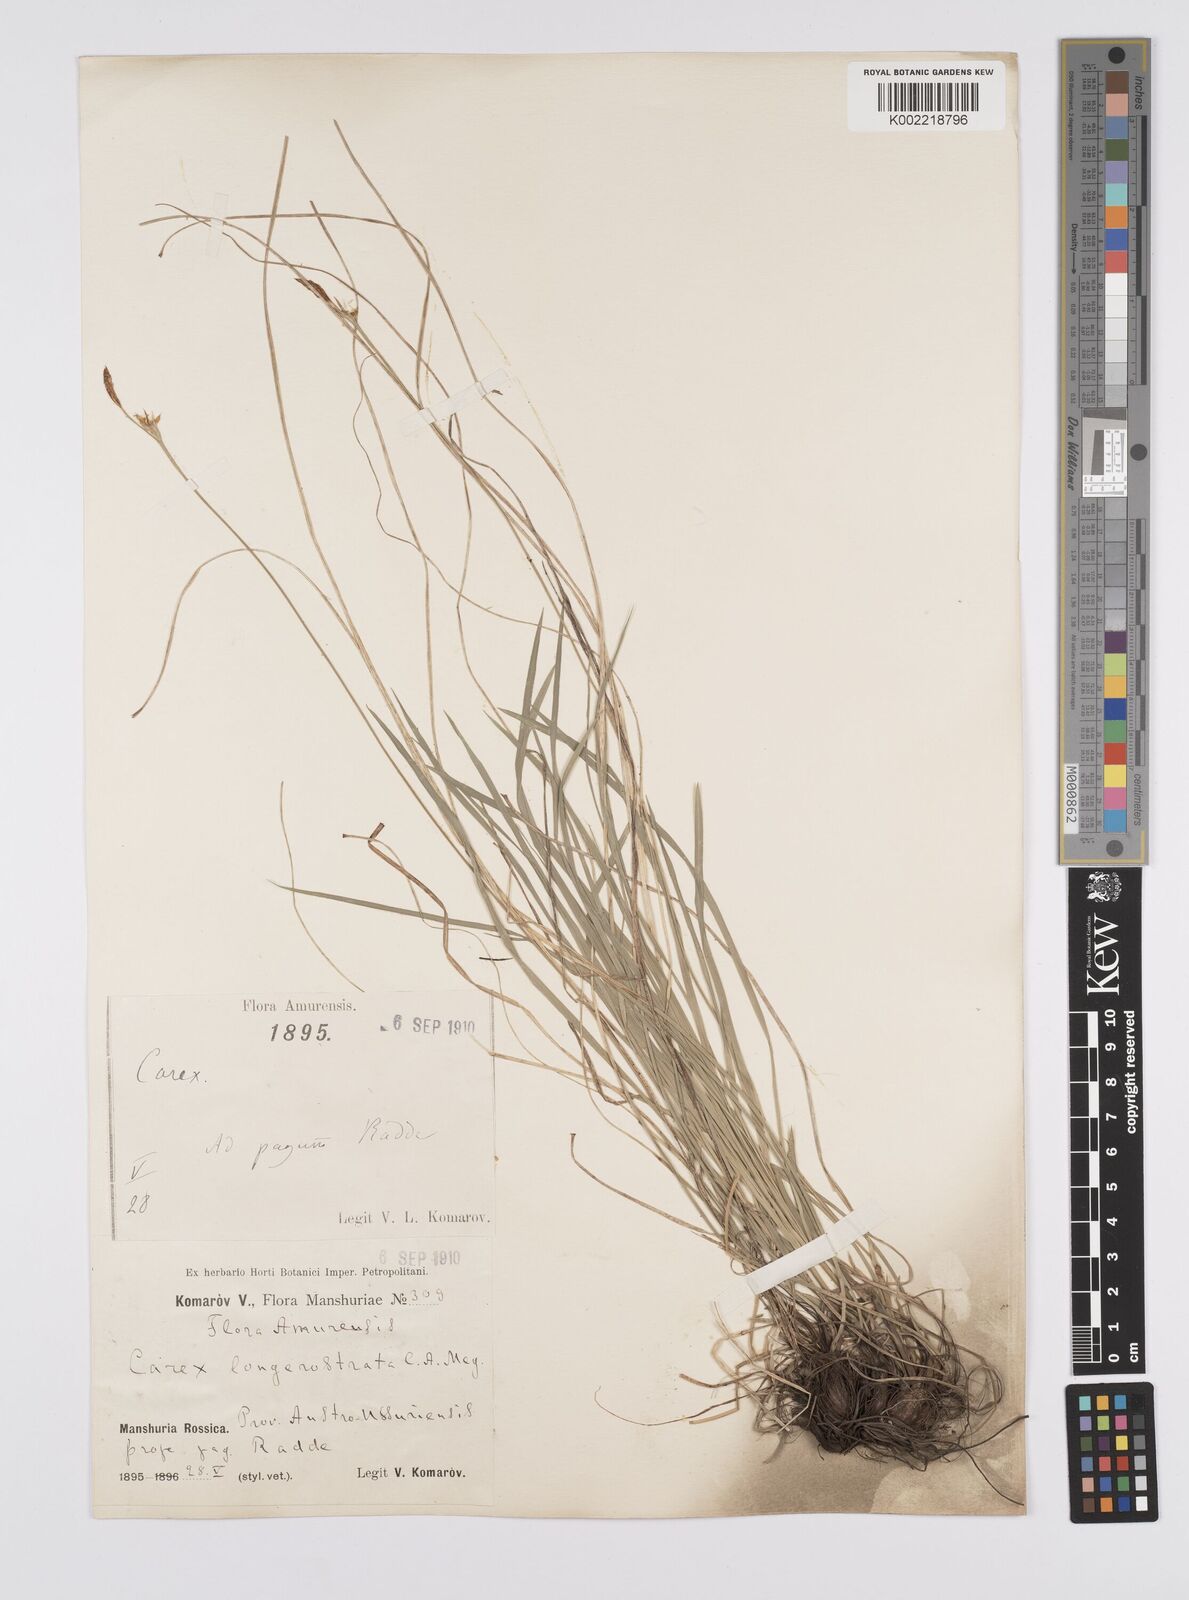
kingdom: Plantae
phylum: Tracheophyta
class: Liliopsida
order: Poales
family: Cyperaceae
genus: Carex
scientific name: Carex longerostrata
